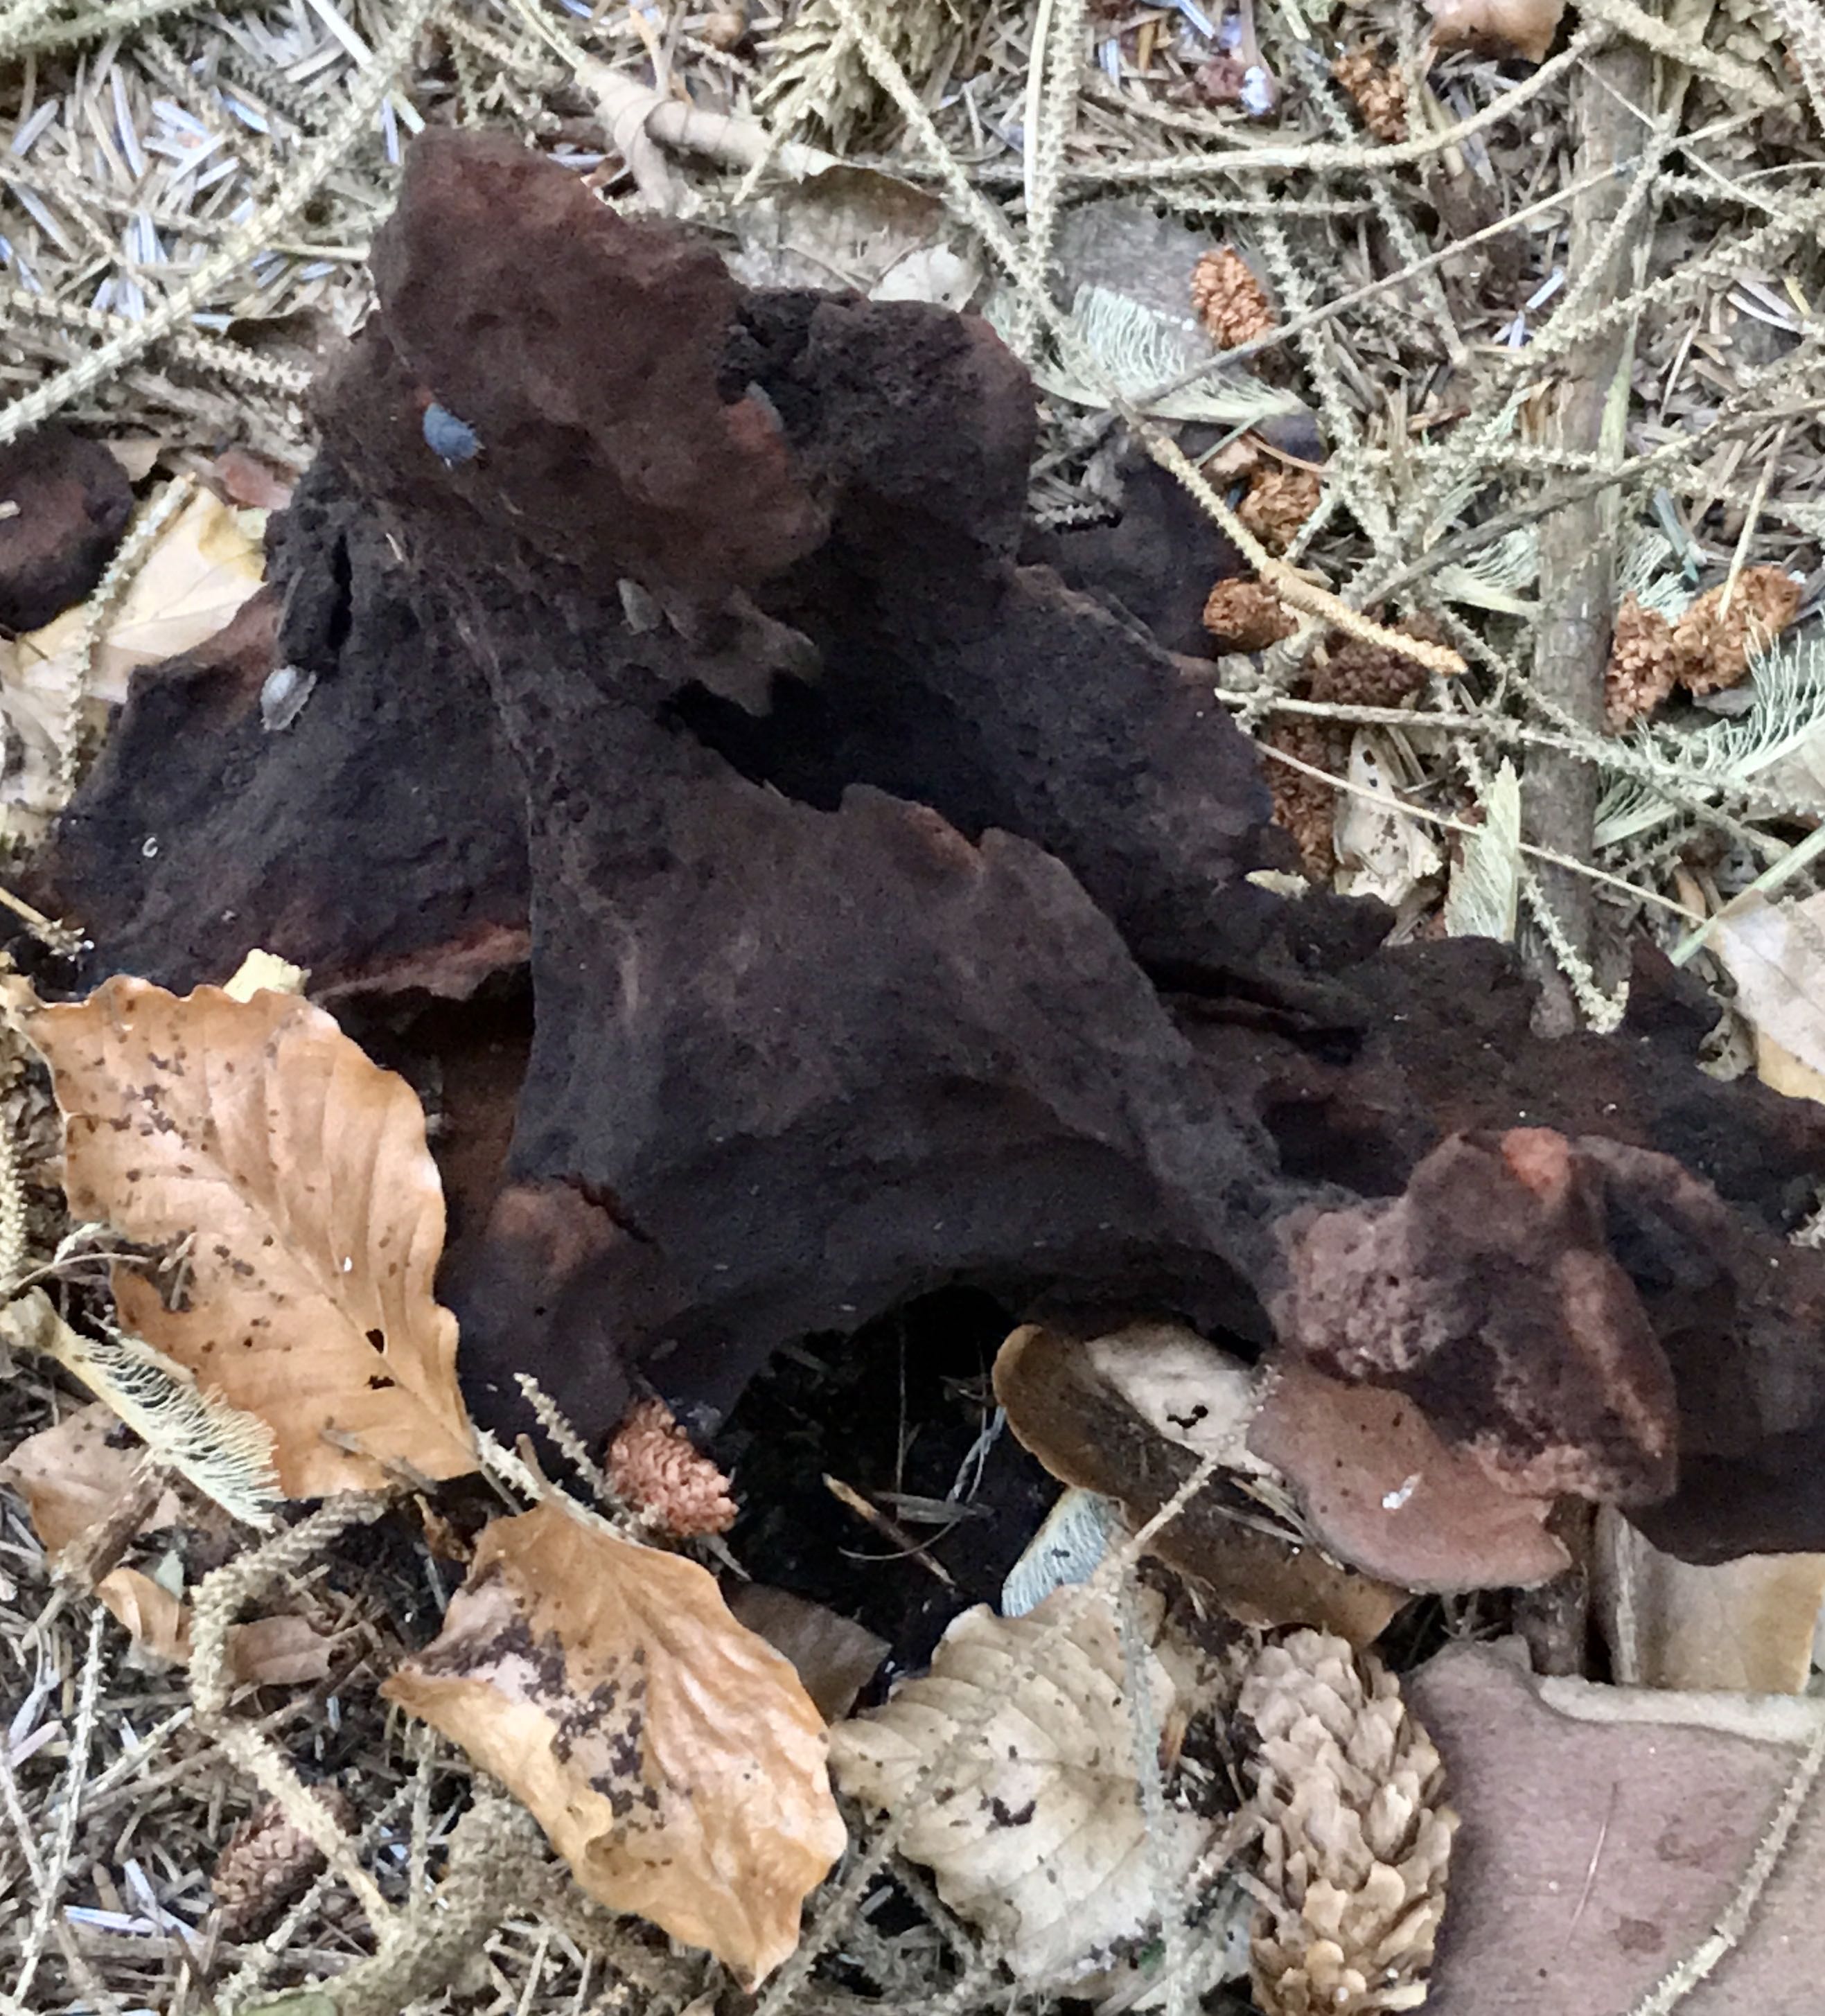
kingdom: Fungi
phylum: Basidiomycota
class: Agaricomycetes
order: Polyporales
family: Laetiporaceae
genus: Phaeolus
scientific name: Phaeolus schweinitzii
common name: brunporesvamp
